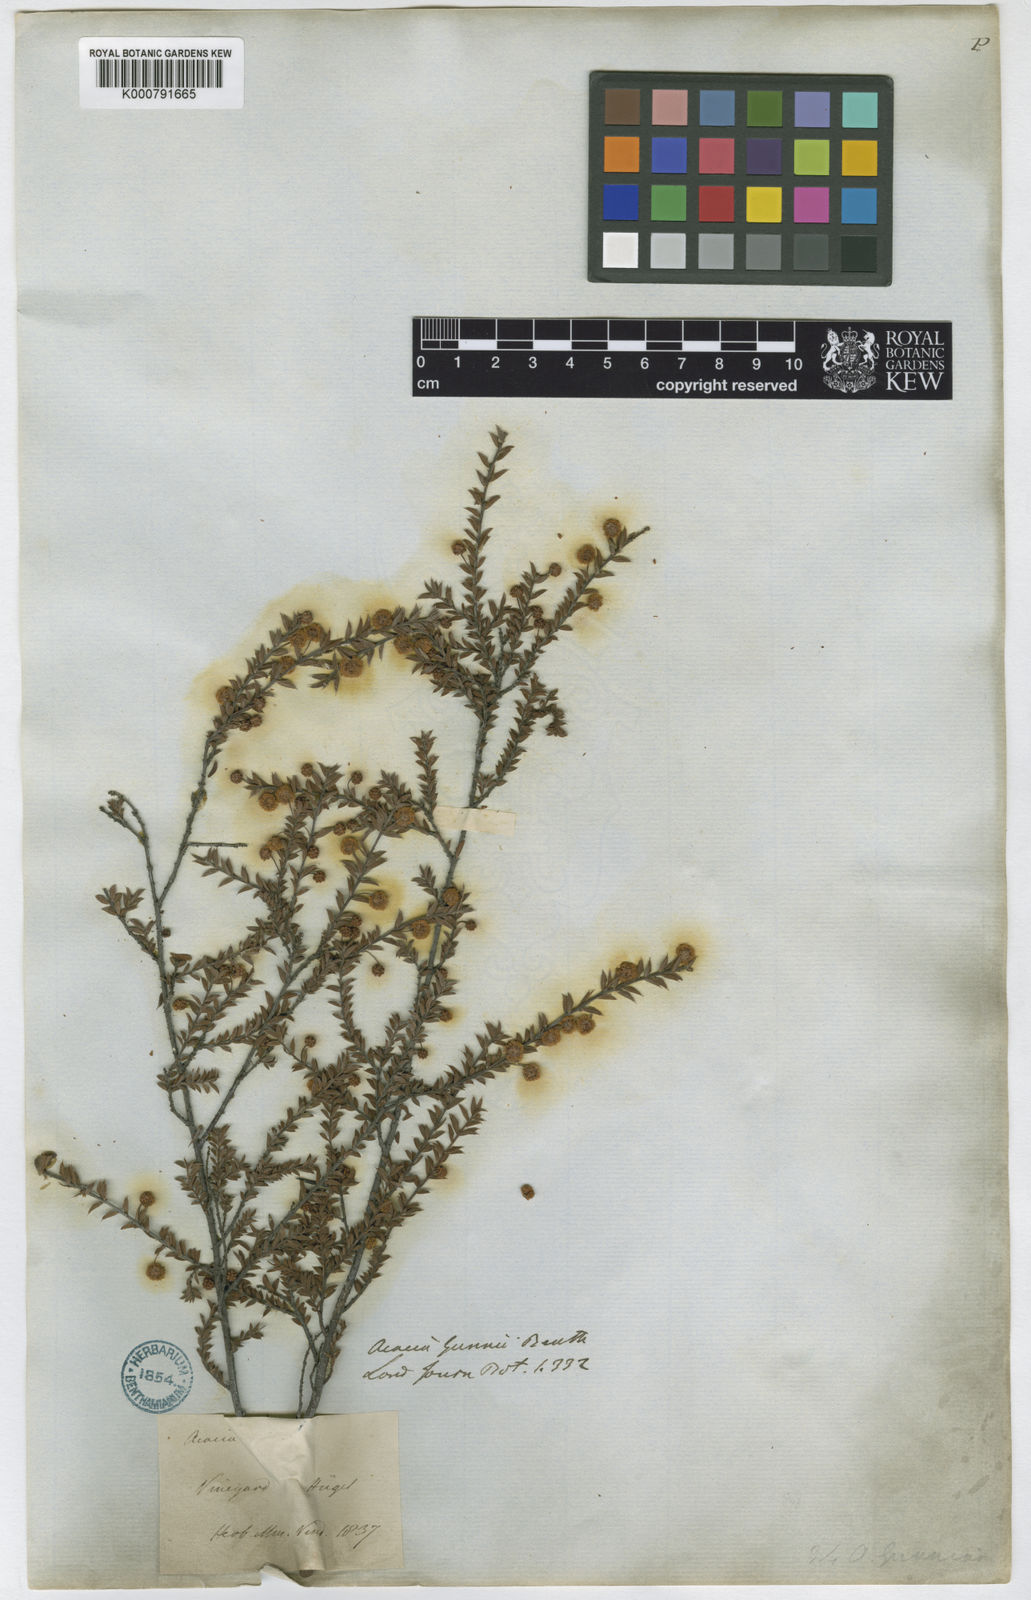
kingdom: Plantae
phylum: Tracheophyta
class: Magnoliopsida
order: Fabales
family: Fabaceae
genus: Acacia
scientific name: Acacia gunnii
